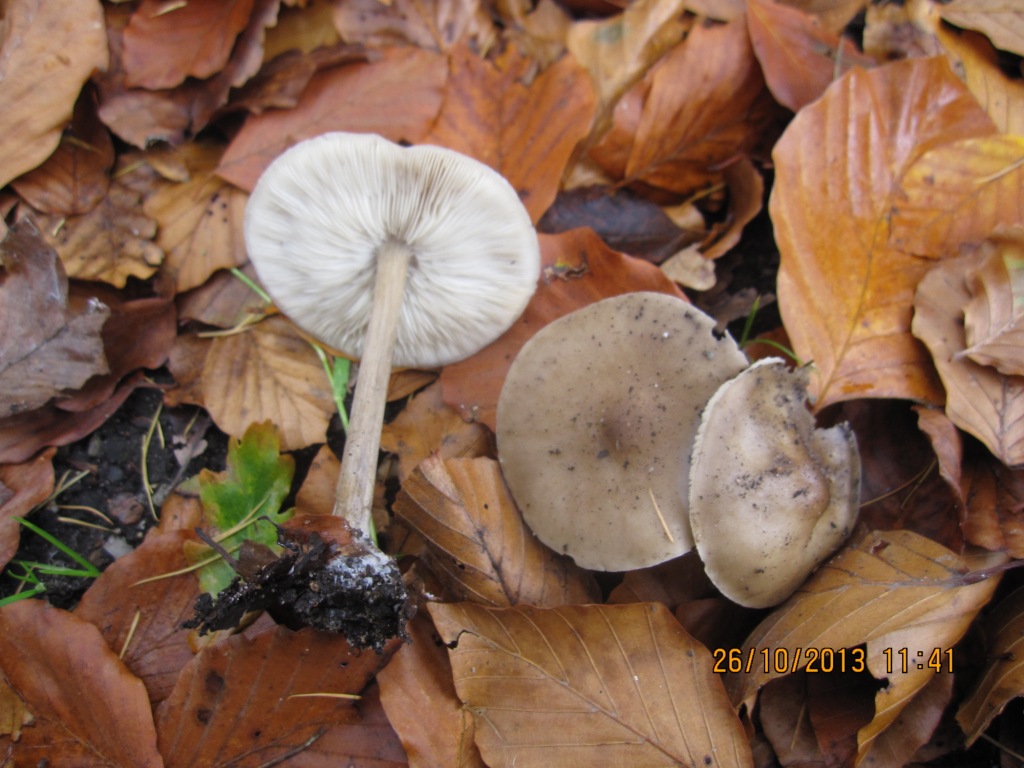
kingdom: Fungi
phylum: Basidiomycota
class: Agaricomycetes
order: Agaricales
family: Tricholomataceae
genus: Melanoleuca
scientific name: Melanoleuca polioleuca
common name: almindelig munkehat
